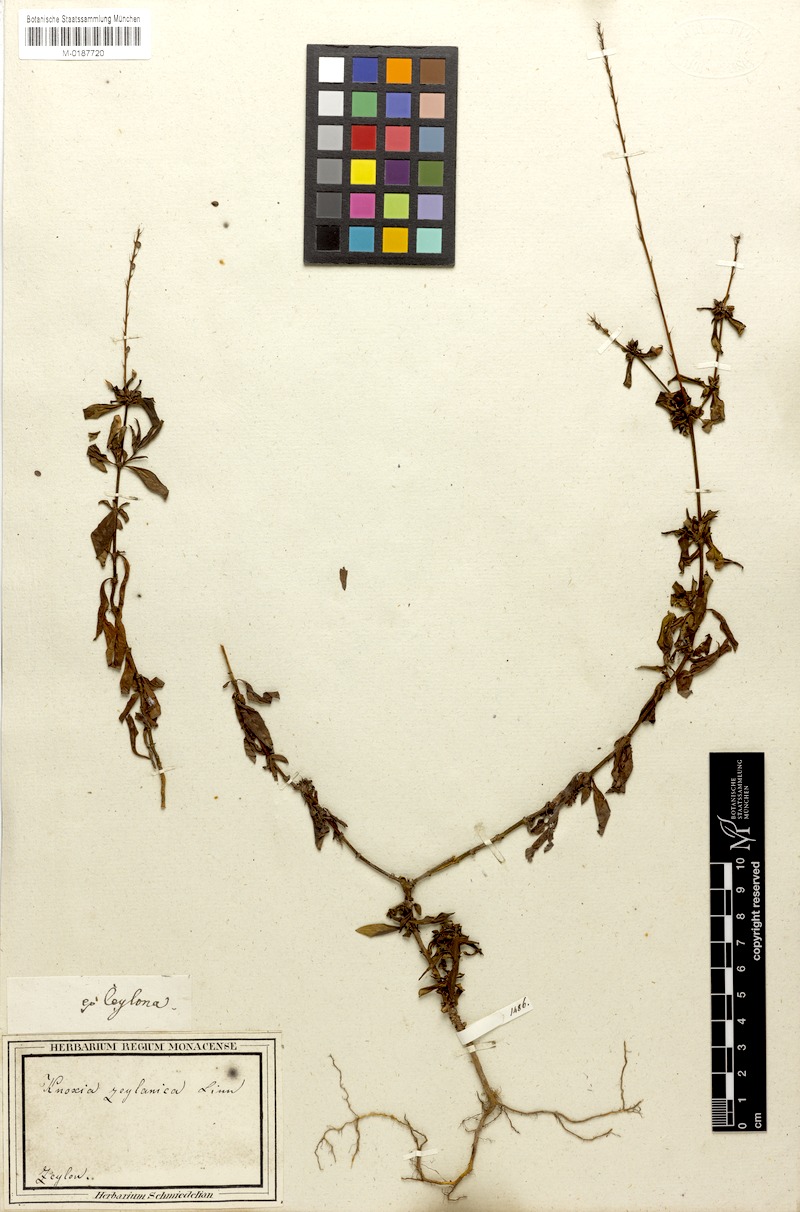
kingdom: Plantae
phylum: Tracheophyta
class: Magnoliopsida
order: Gentianales
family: Rubiaceae
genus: Knoxia
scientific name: Knoxia zeylanica
